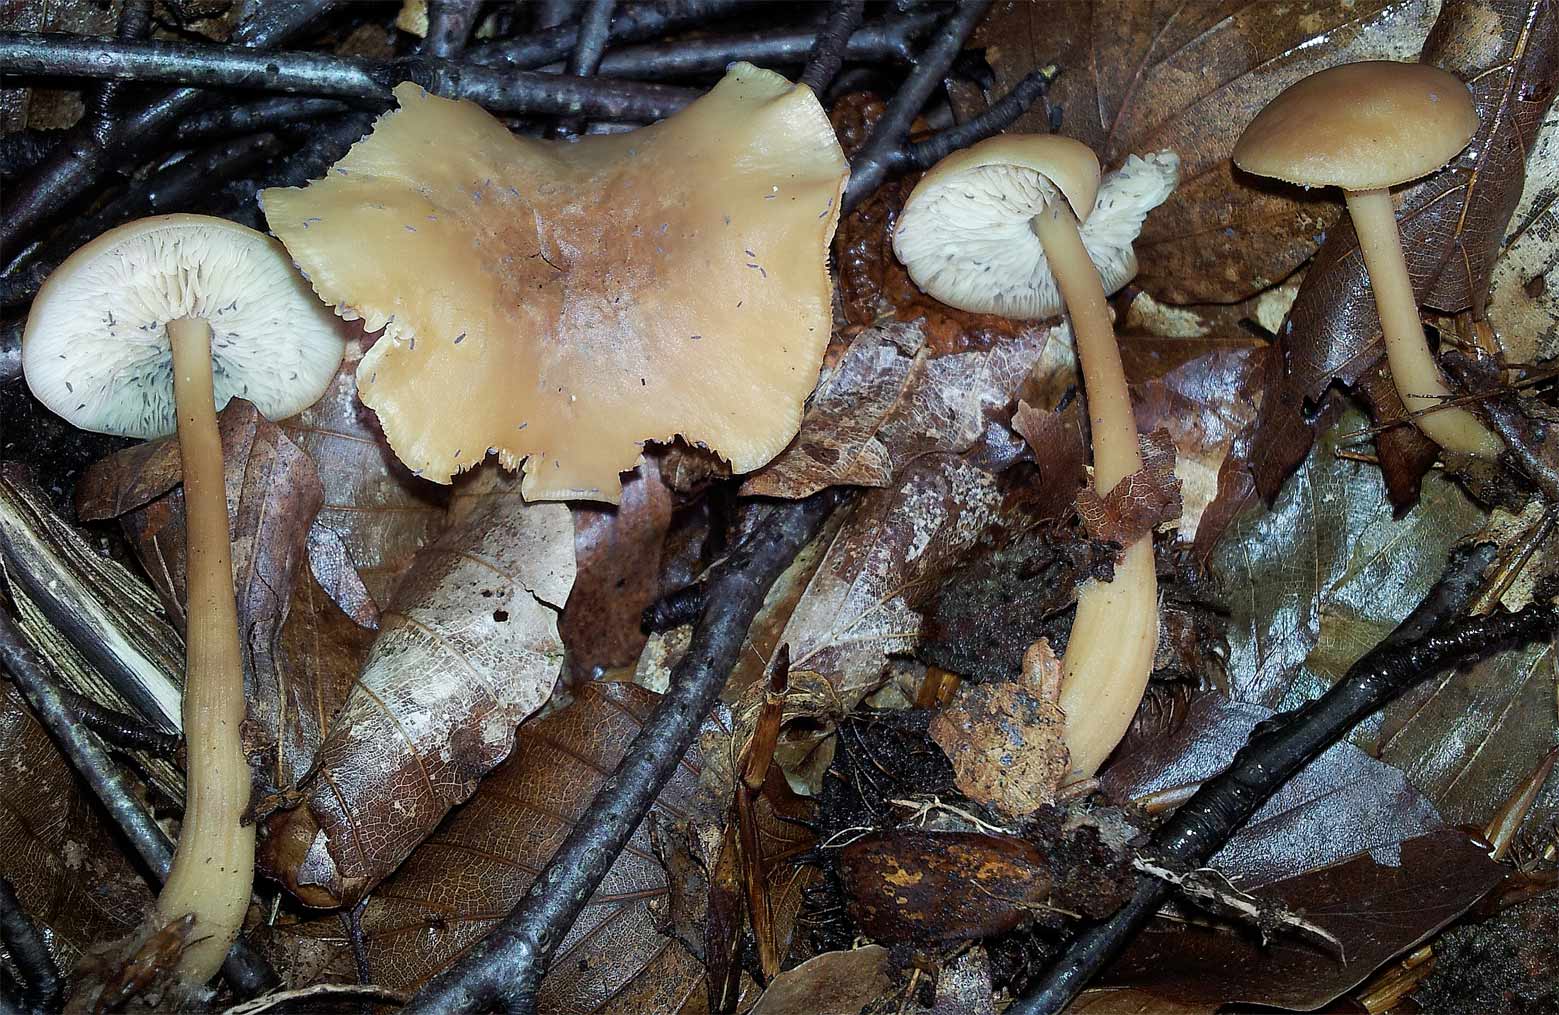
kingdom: Fungi
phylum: Basidiomycota
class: Agaricomycetes
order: Agaricales
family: Omphalotaceae
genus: Gymnopus
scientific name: Gymnopus dryophilus
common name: løv-fladhat
